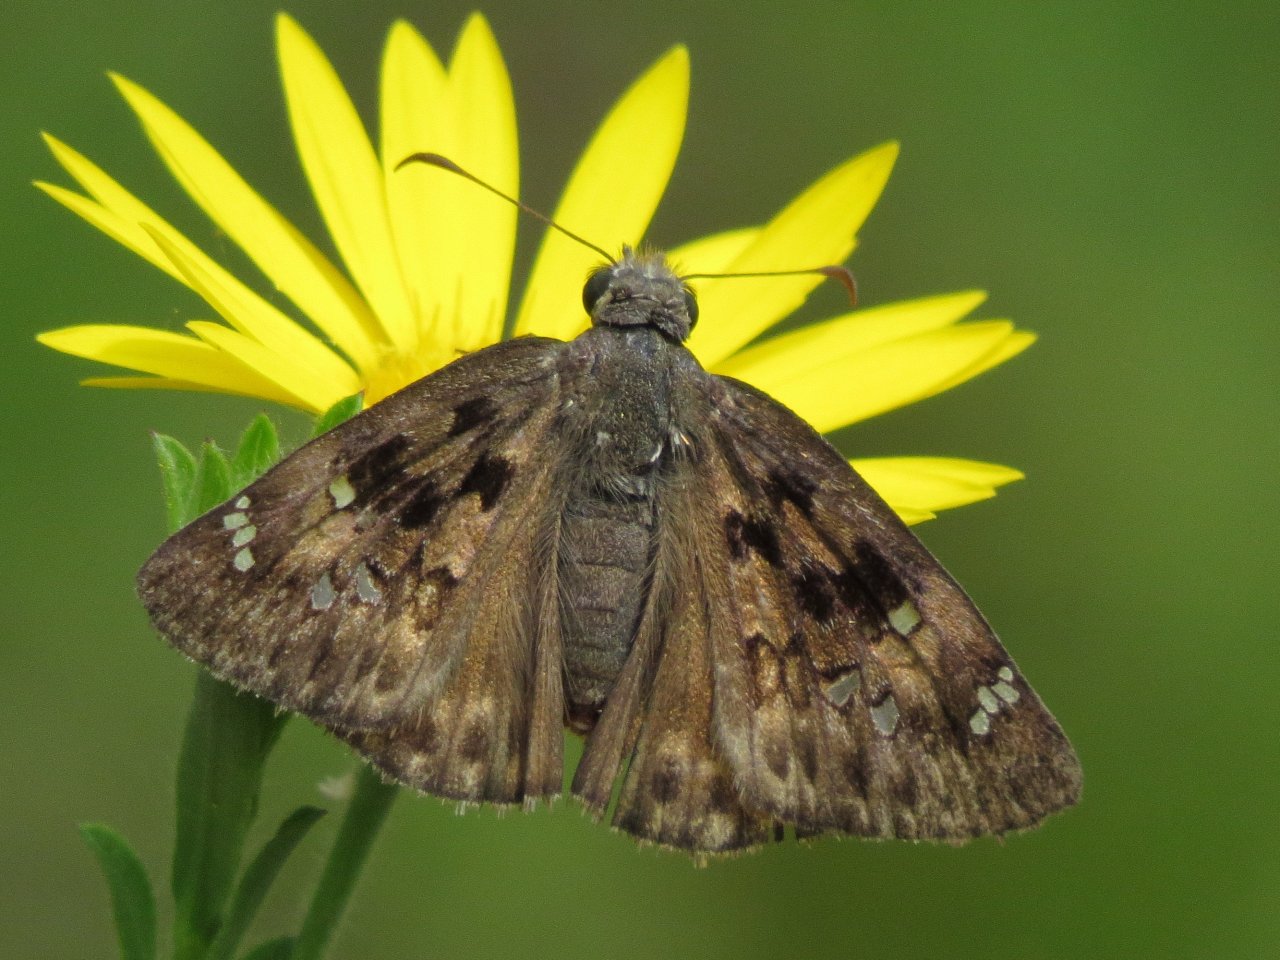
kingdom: Animalia
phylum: Arthropoda
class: Insecta
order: Lepidoptera
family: Hesperiidae
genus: Gesta
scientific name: Gesta
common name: Horace's Duskywing
